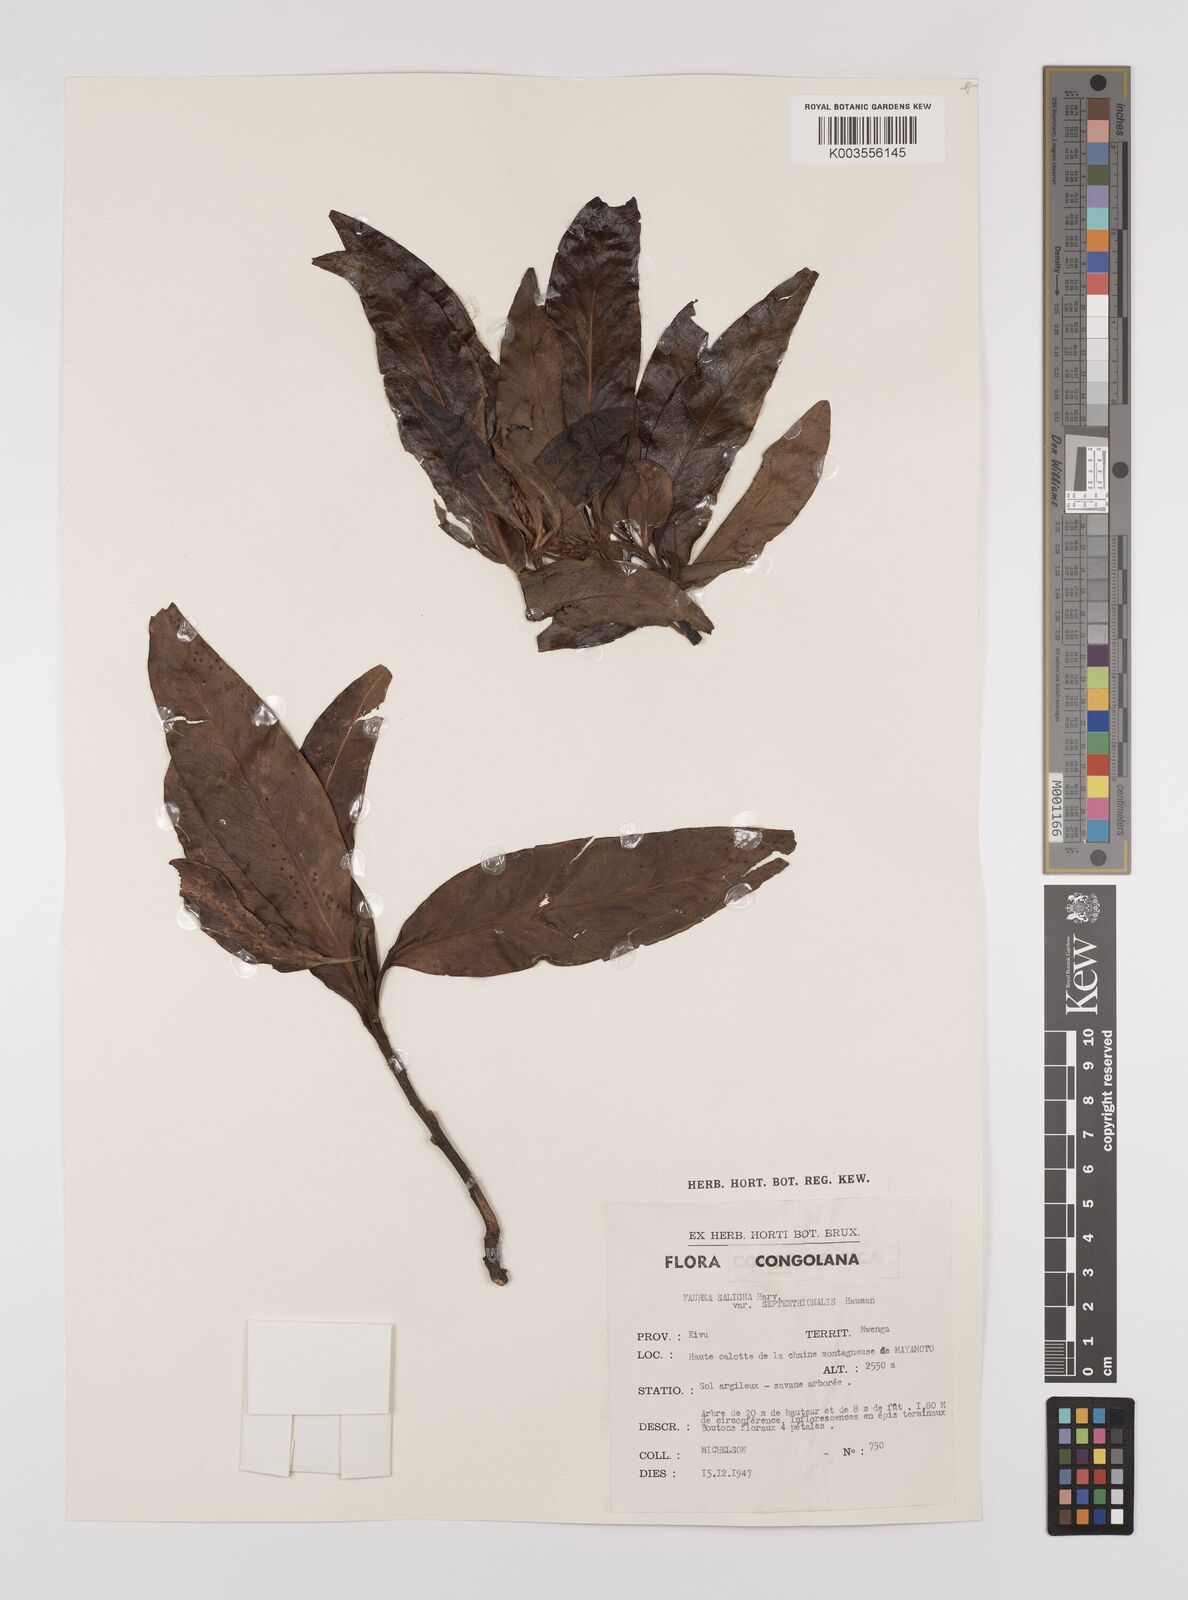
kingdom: Plantae
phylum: Tracheophyta
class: Magnoliopsida
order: Proteales
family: Proteaceae
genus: Faurea
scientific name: Faurea saligna
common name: African bean
